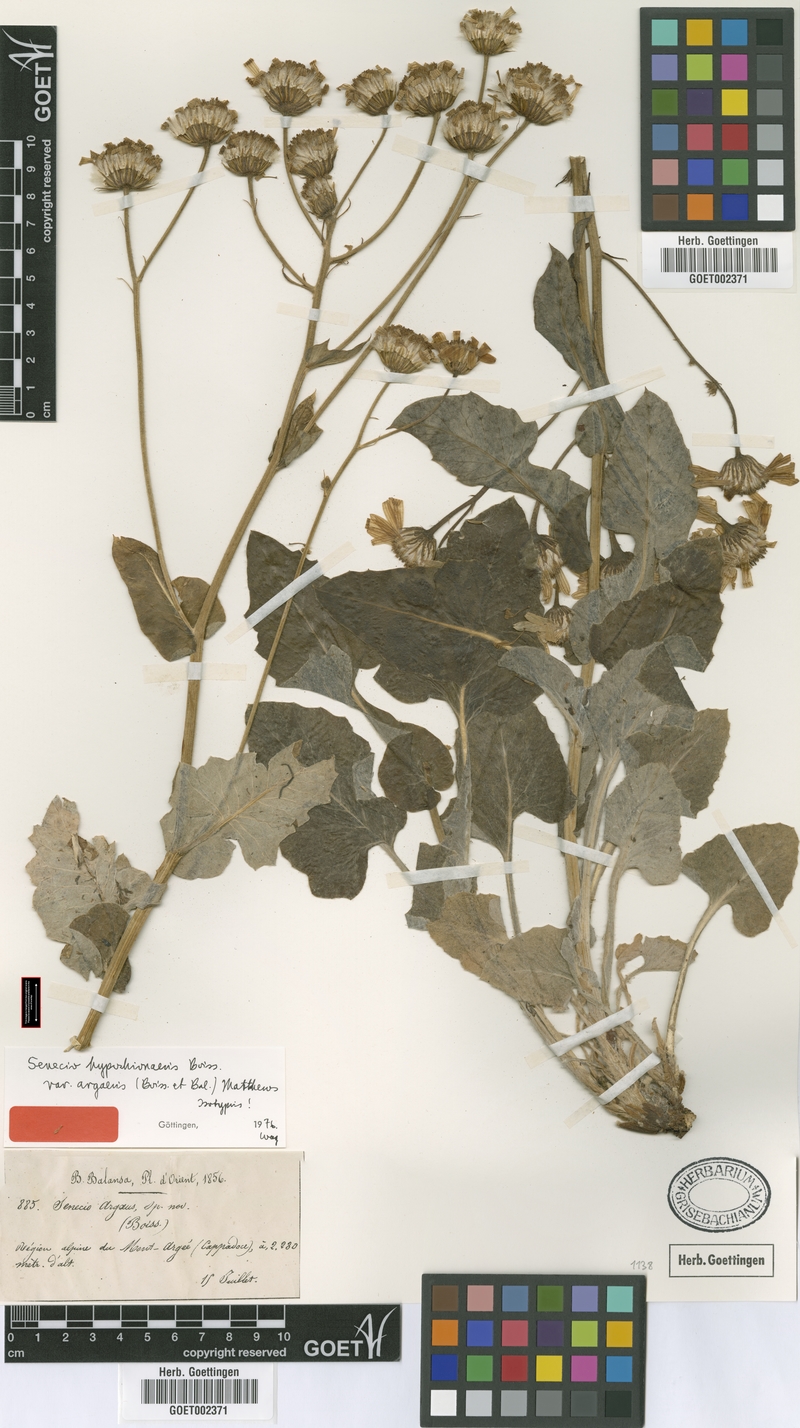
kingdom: Plantae
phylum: Tracheophyta
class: Magnoliopsida
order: Asterales
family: Asteraceae
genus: Turanecio
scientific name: Turanecio hypochionaeus
